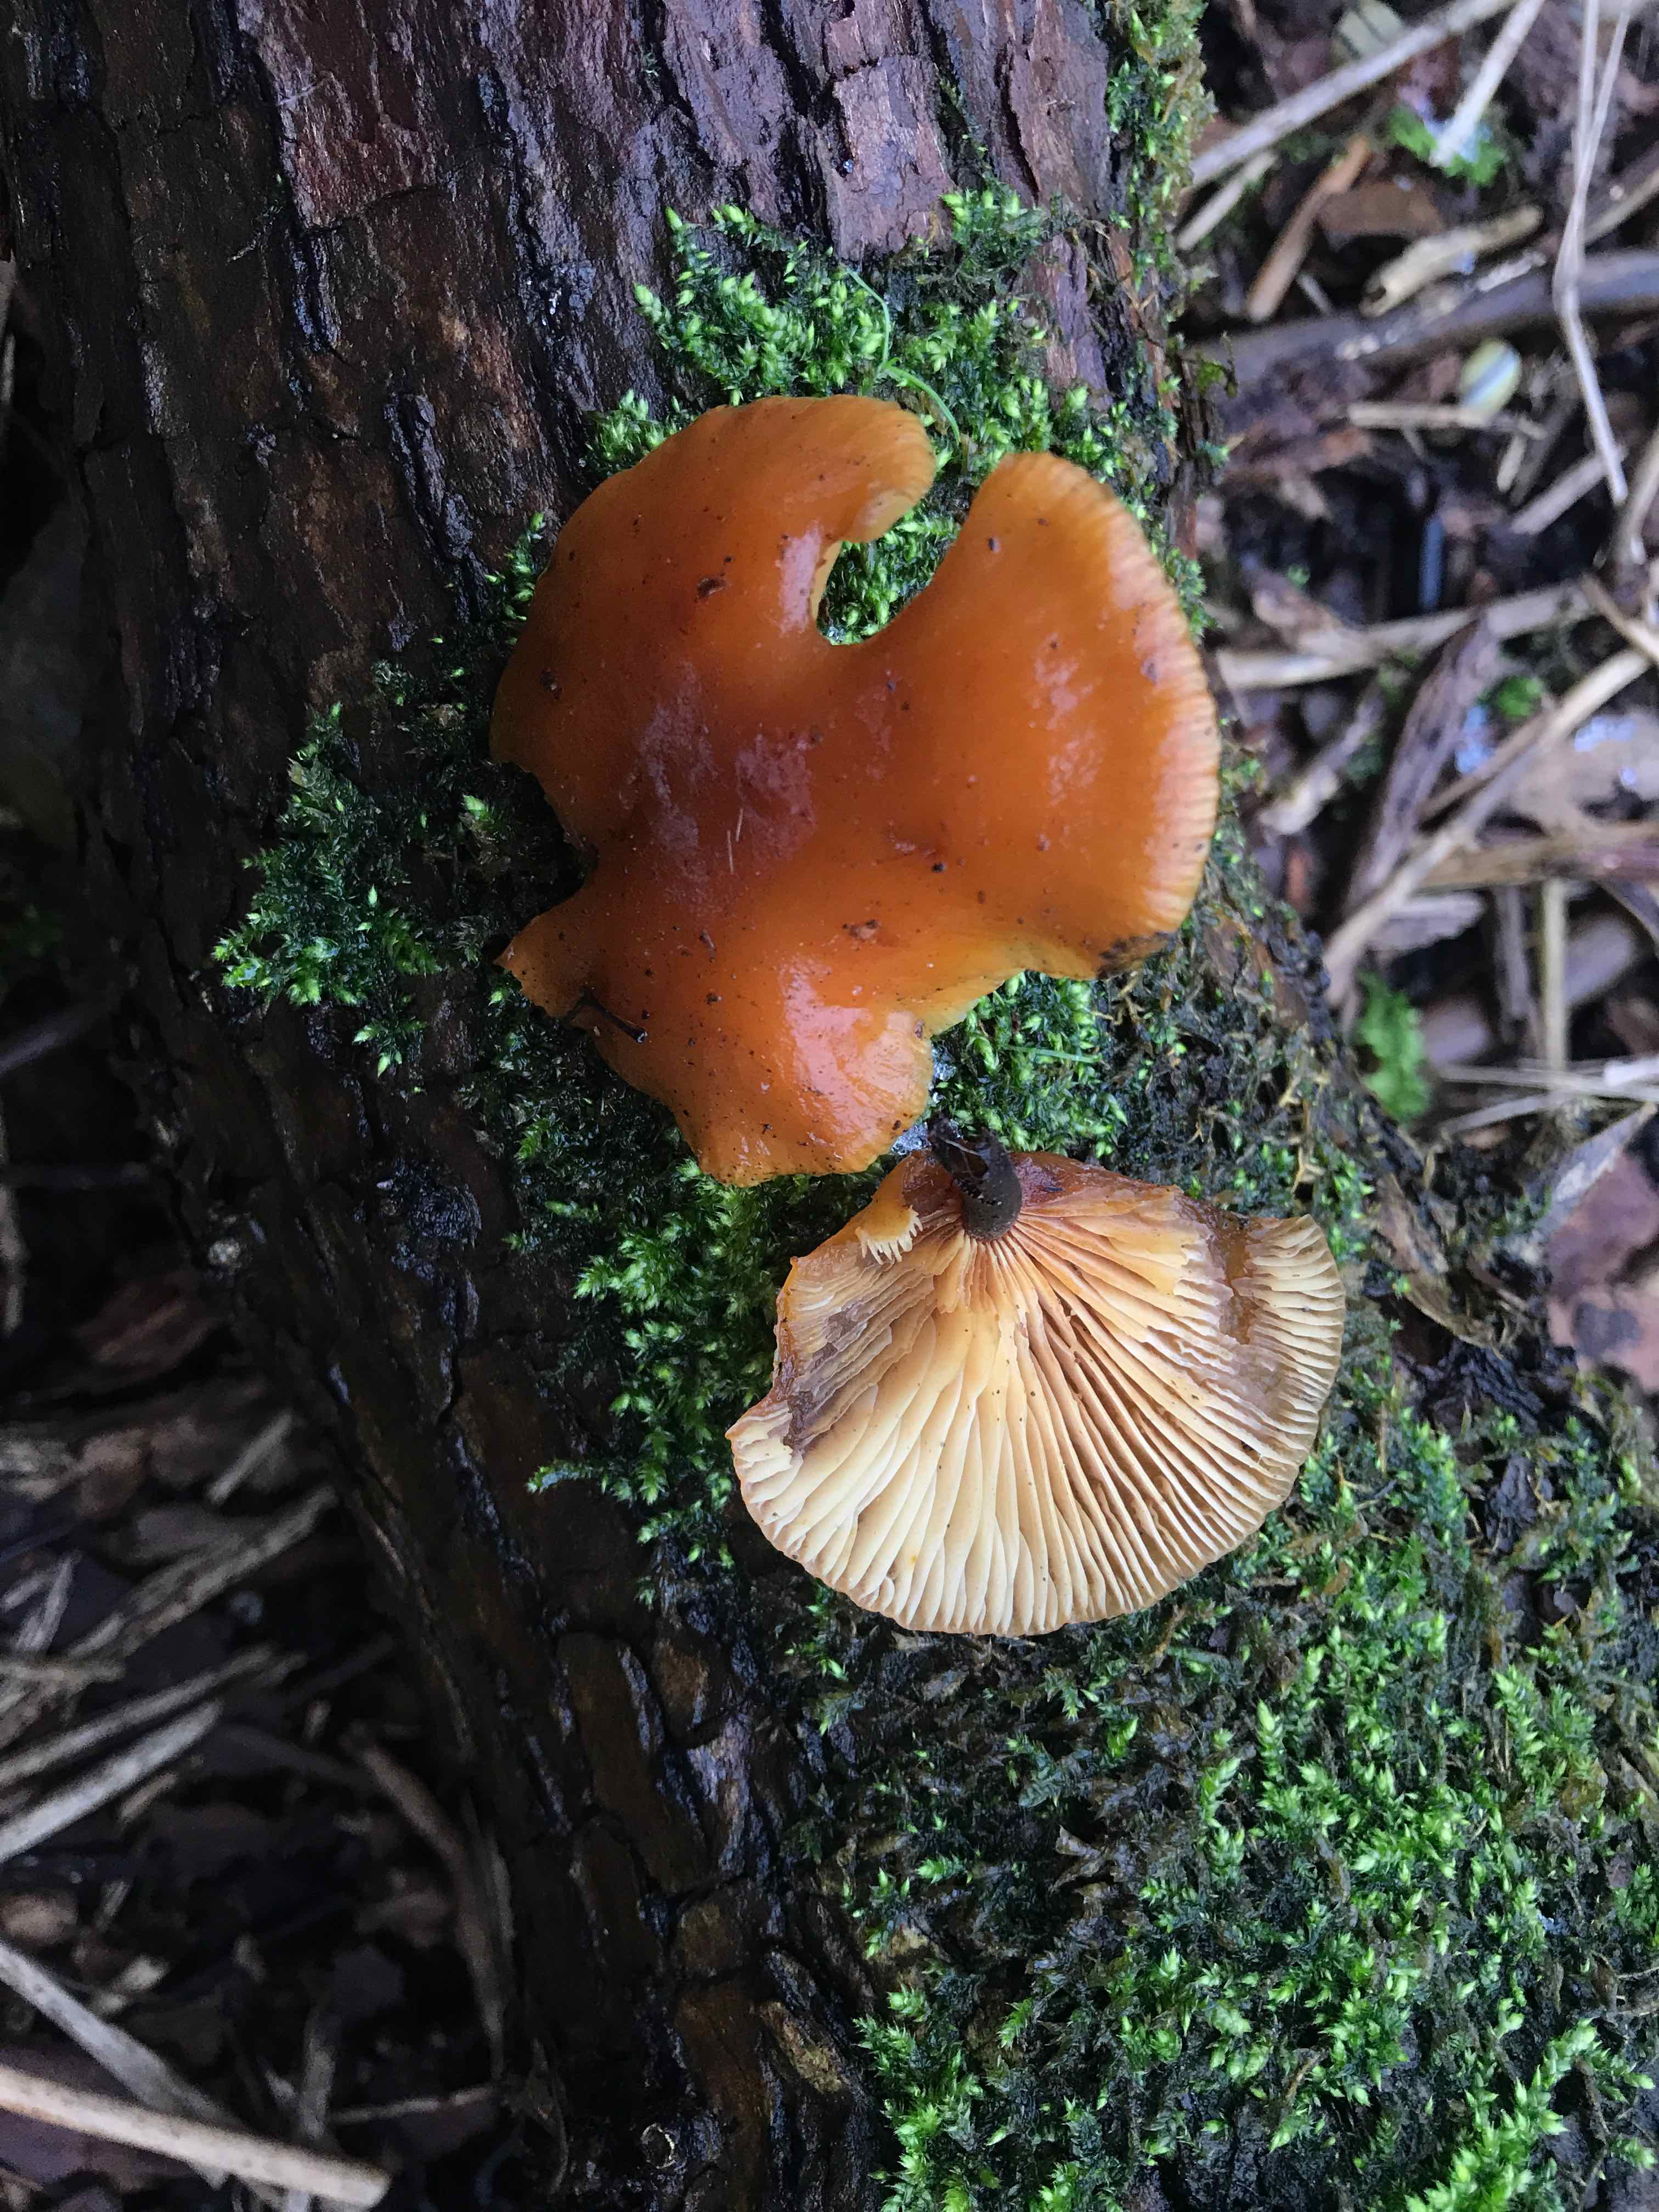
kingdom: Fungi
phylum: Basidiomycota
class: Agaricomycetes
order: Agaricales
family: Physalacriaceae
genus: Flammulina
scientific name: Flammulina velutipes
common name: gul fløjlsfod
